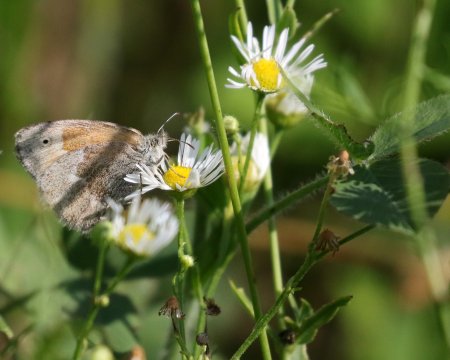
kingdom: Animalia
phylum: Arthropoda
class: Insecta
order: Lepidoptera
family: Nymphalidae
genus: Coenonympha
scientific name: Coenonympha tullia
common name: Large Heath
